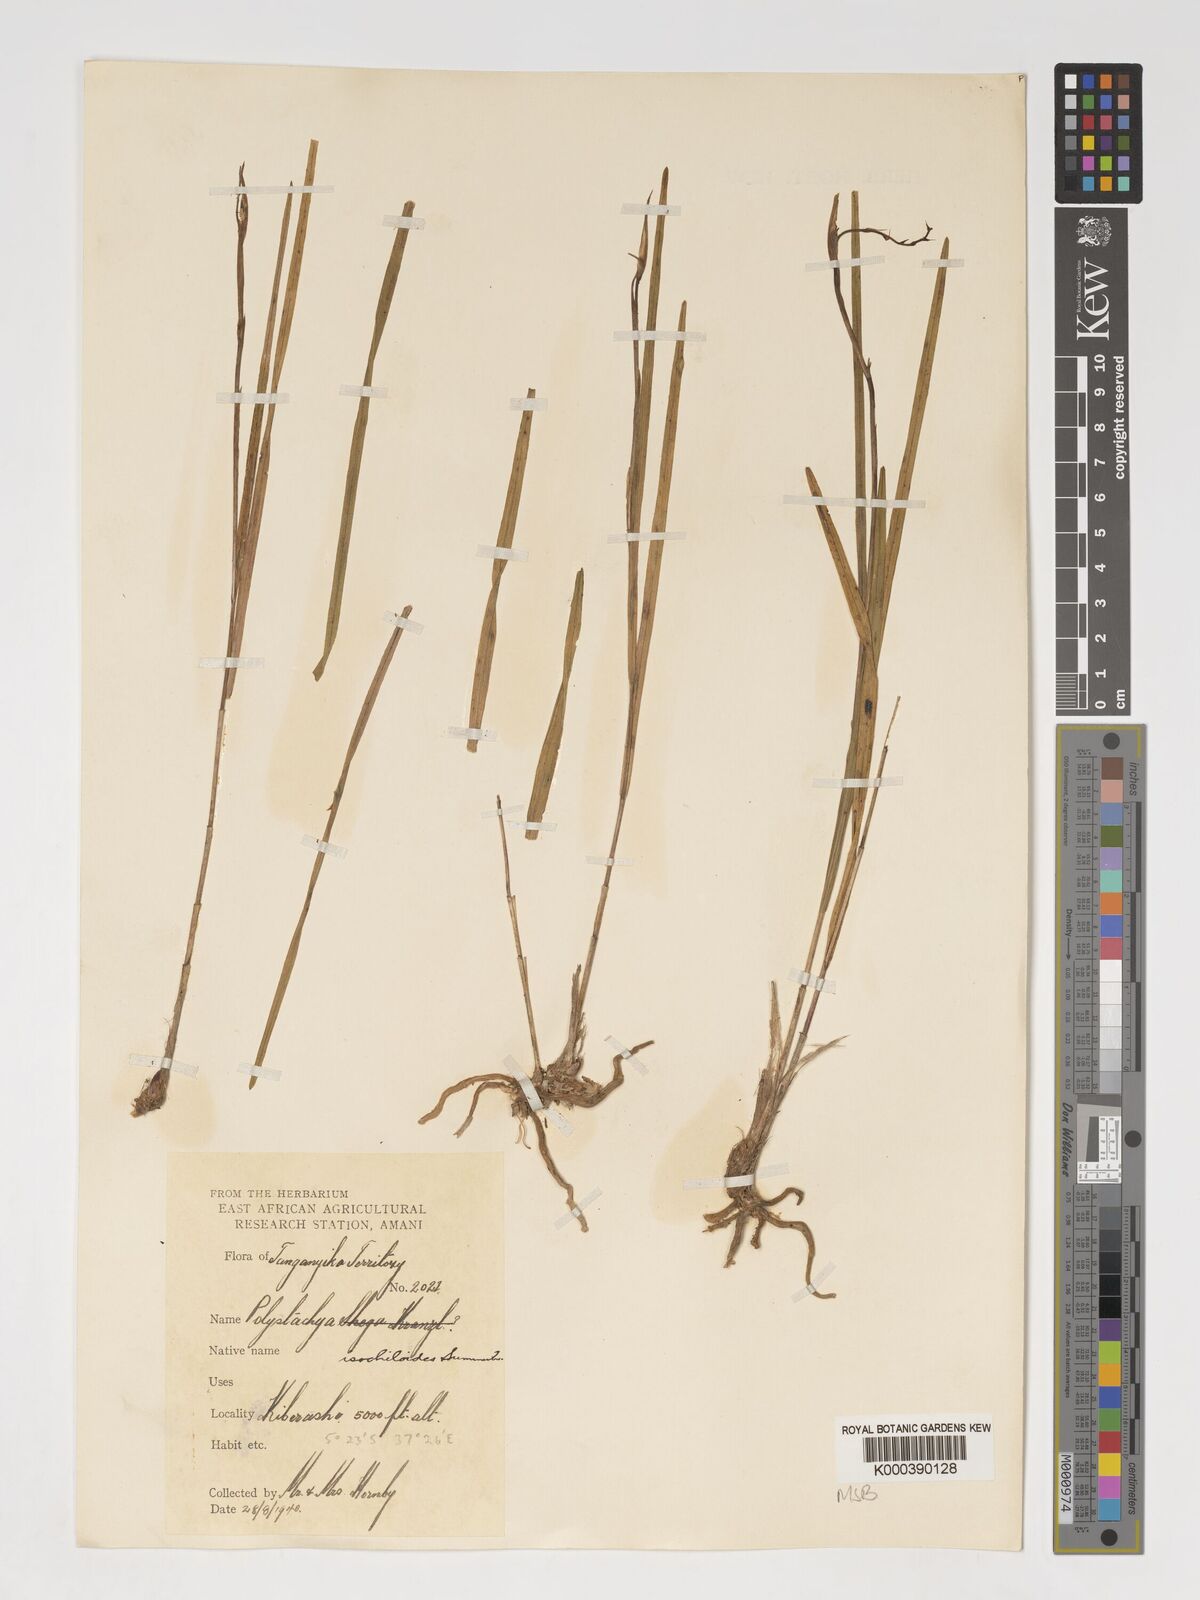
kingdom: Plantae
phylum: Tracheophyta
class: Liliopsida
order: Asparagales
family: Orchidaceae
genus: Polystachya
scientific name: Polystachya isochiloides
